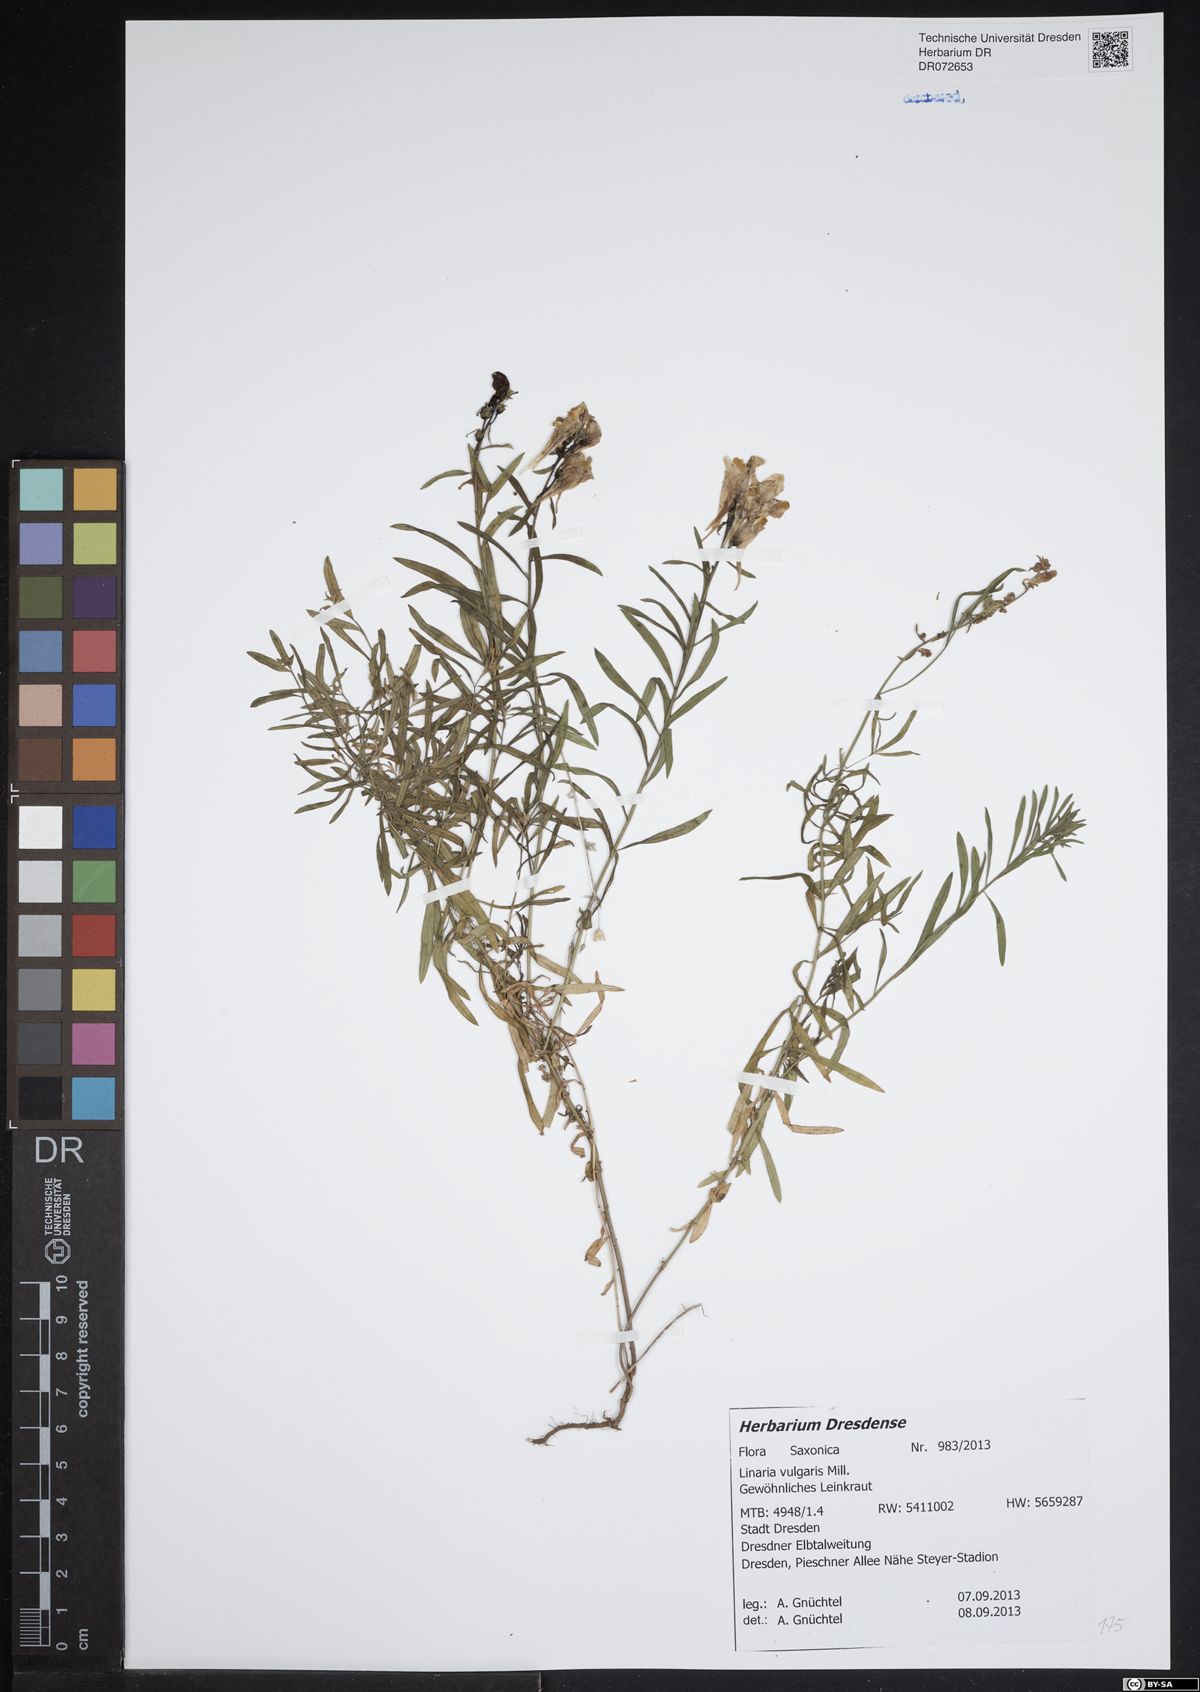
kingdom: Plantae
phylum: Tracheophyta
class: Magnoliopsida
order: Lamiales
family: Plantaginaceae
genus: Linaria
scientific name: Linaria vulgaris
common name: Butter and eggs
